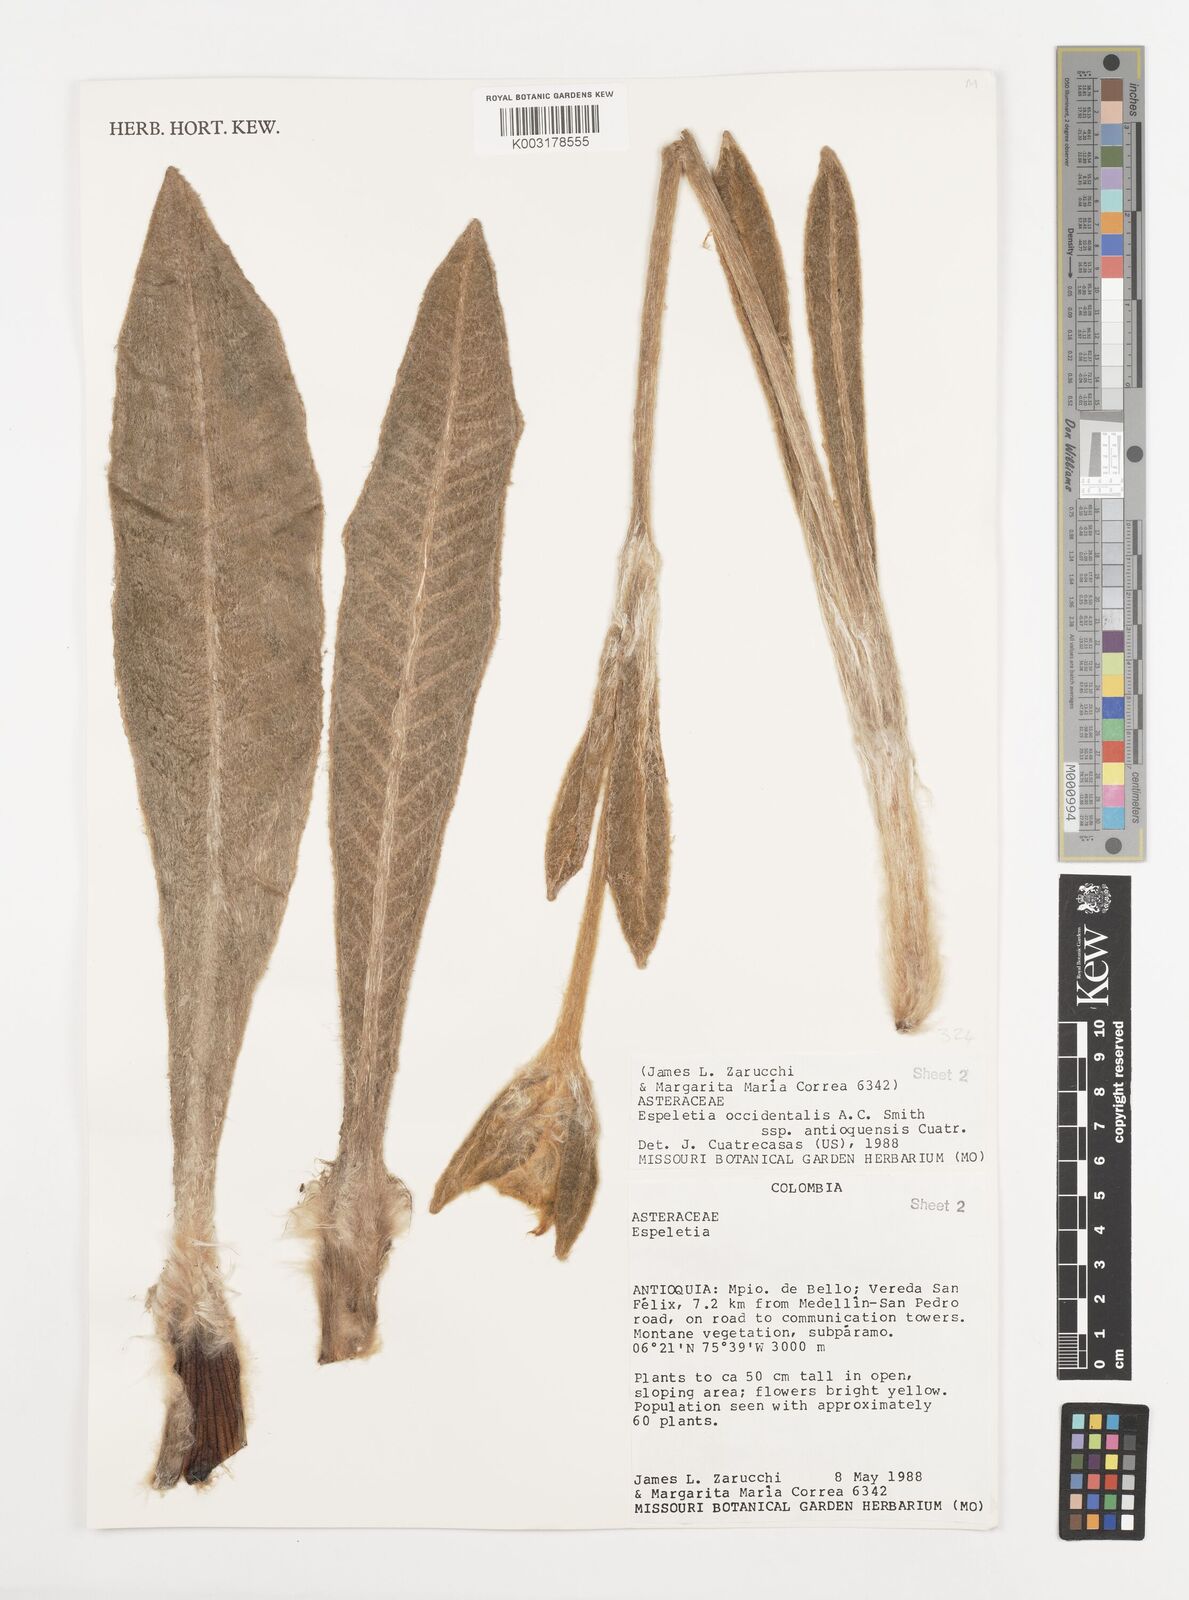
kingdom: Plantae
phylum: Tracheophyta
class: Magnoliopsida
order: Asterales
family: Asteraceae
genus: Espeletia
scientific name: Espeletia occidentalis
